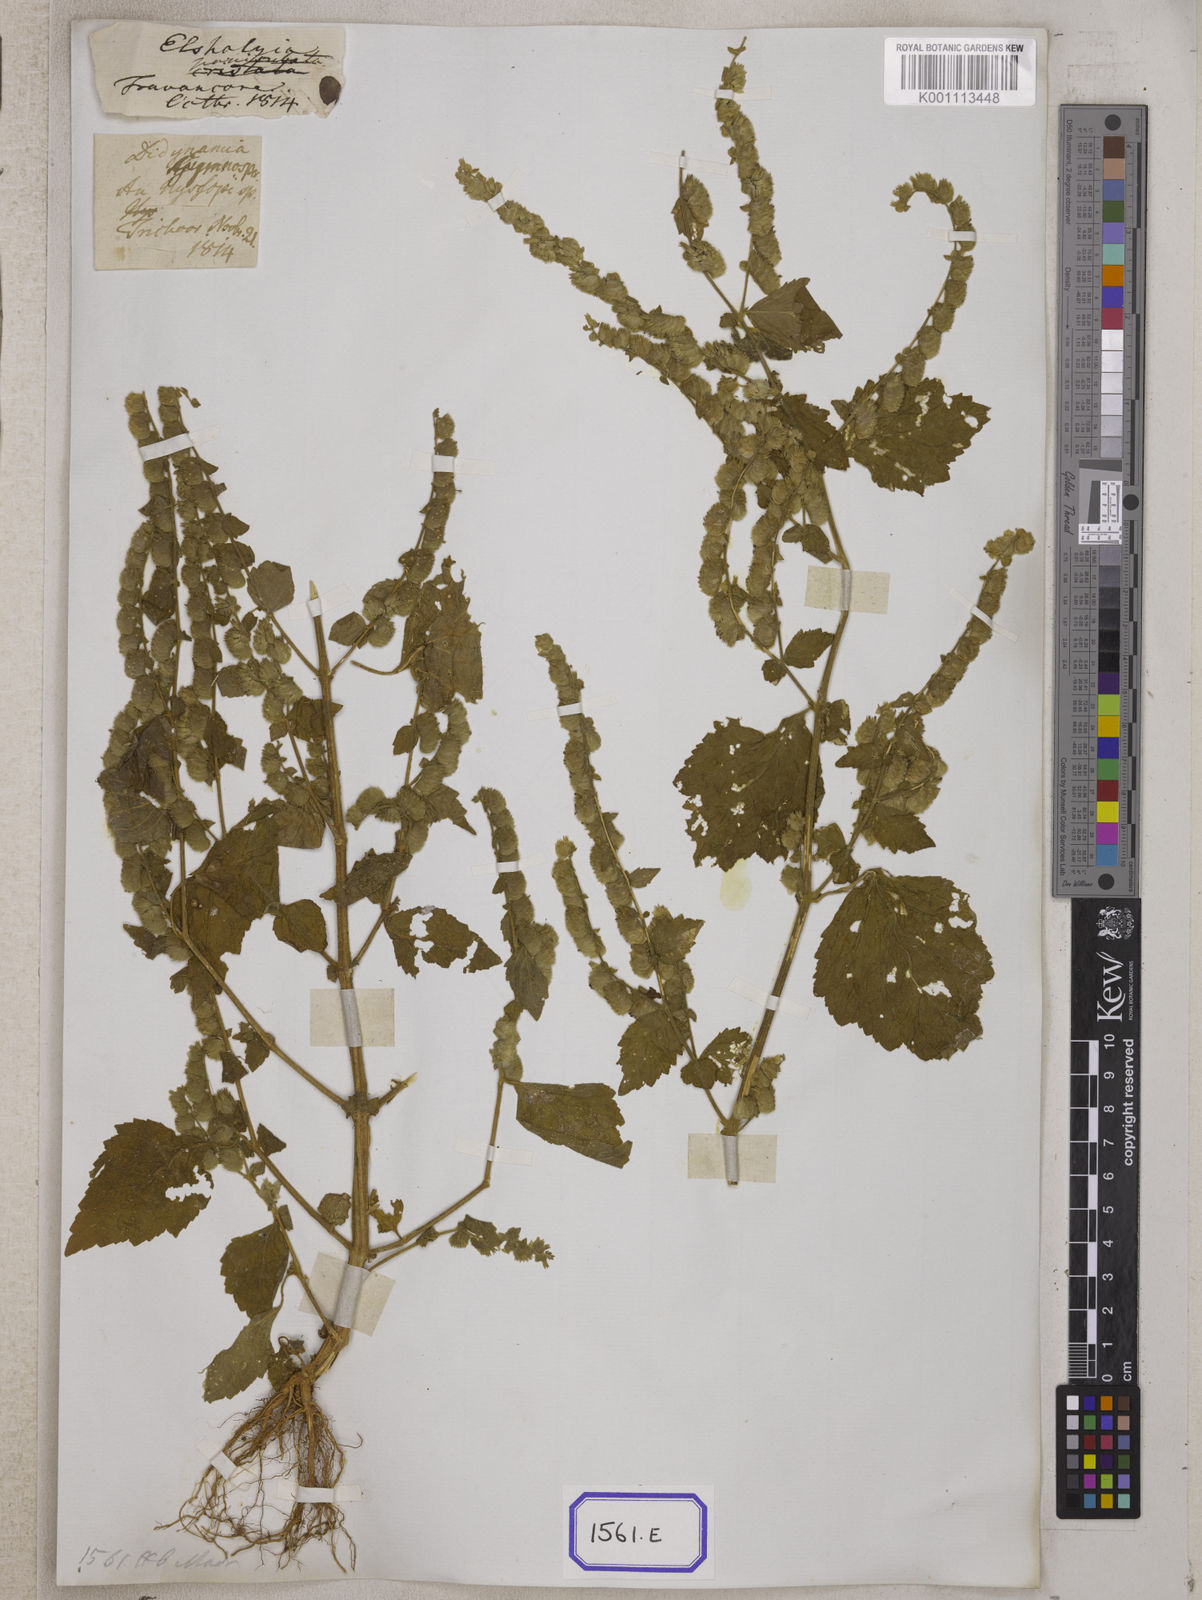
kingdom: Plantae
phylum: Tracheophyta
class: Magnoliopsida
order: Lamiales
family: Lamiaceae
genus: Pogostemon
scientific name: Pogostemon paniculatus
